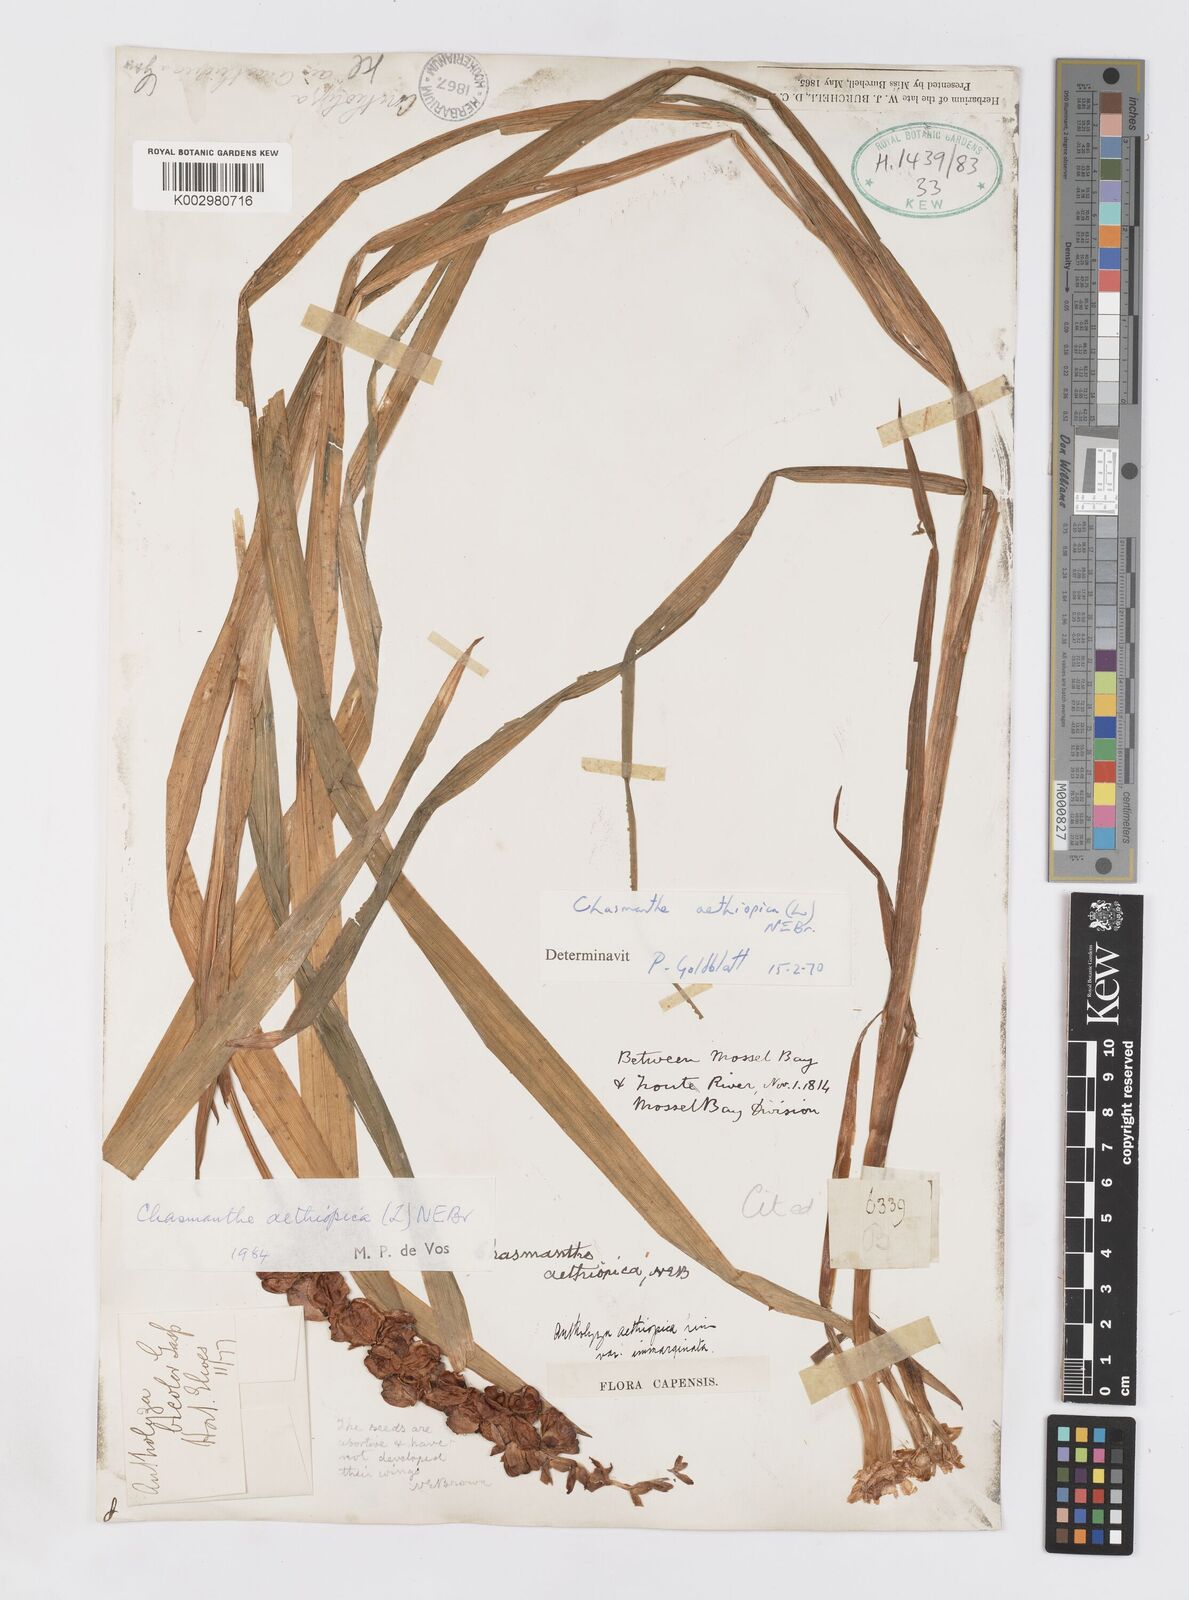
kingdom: Plantae
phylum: Tracheophyta
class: Liliopsida
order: Asparagales
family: Iridaceae
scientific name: Iridaceae
